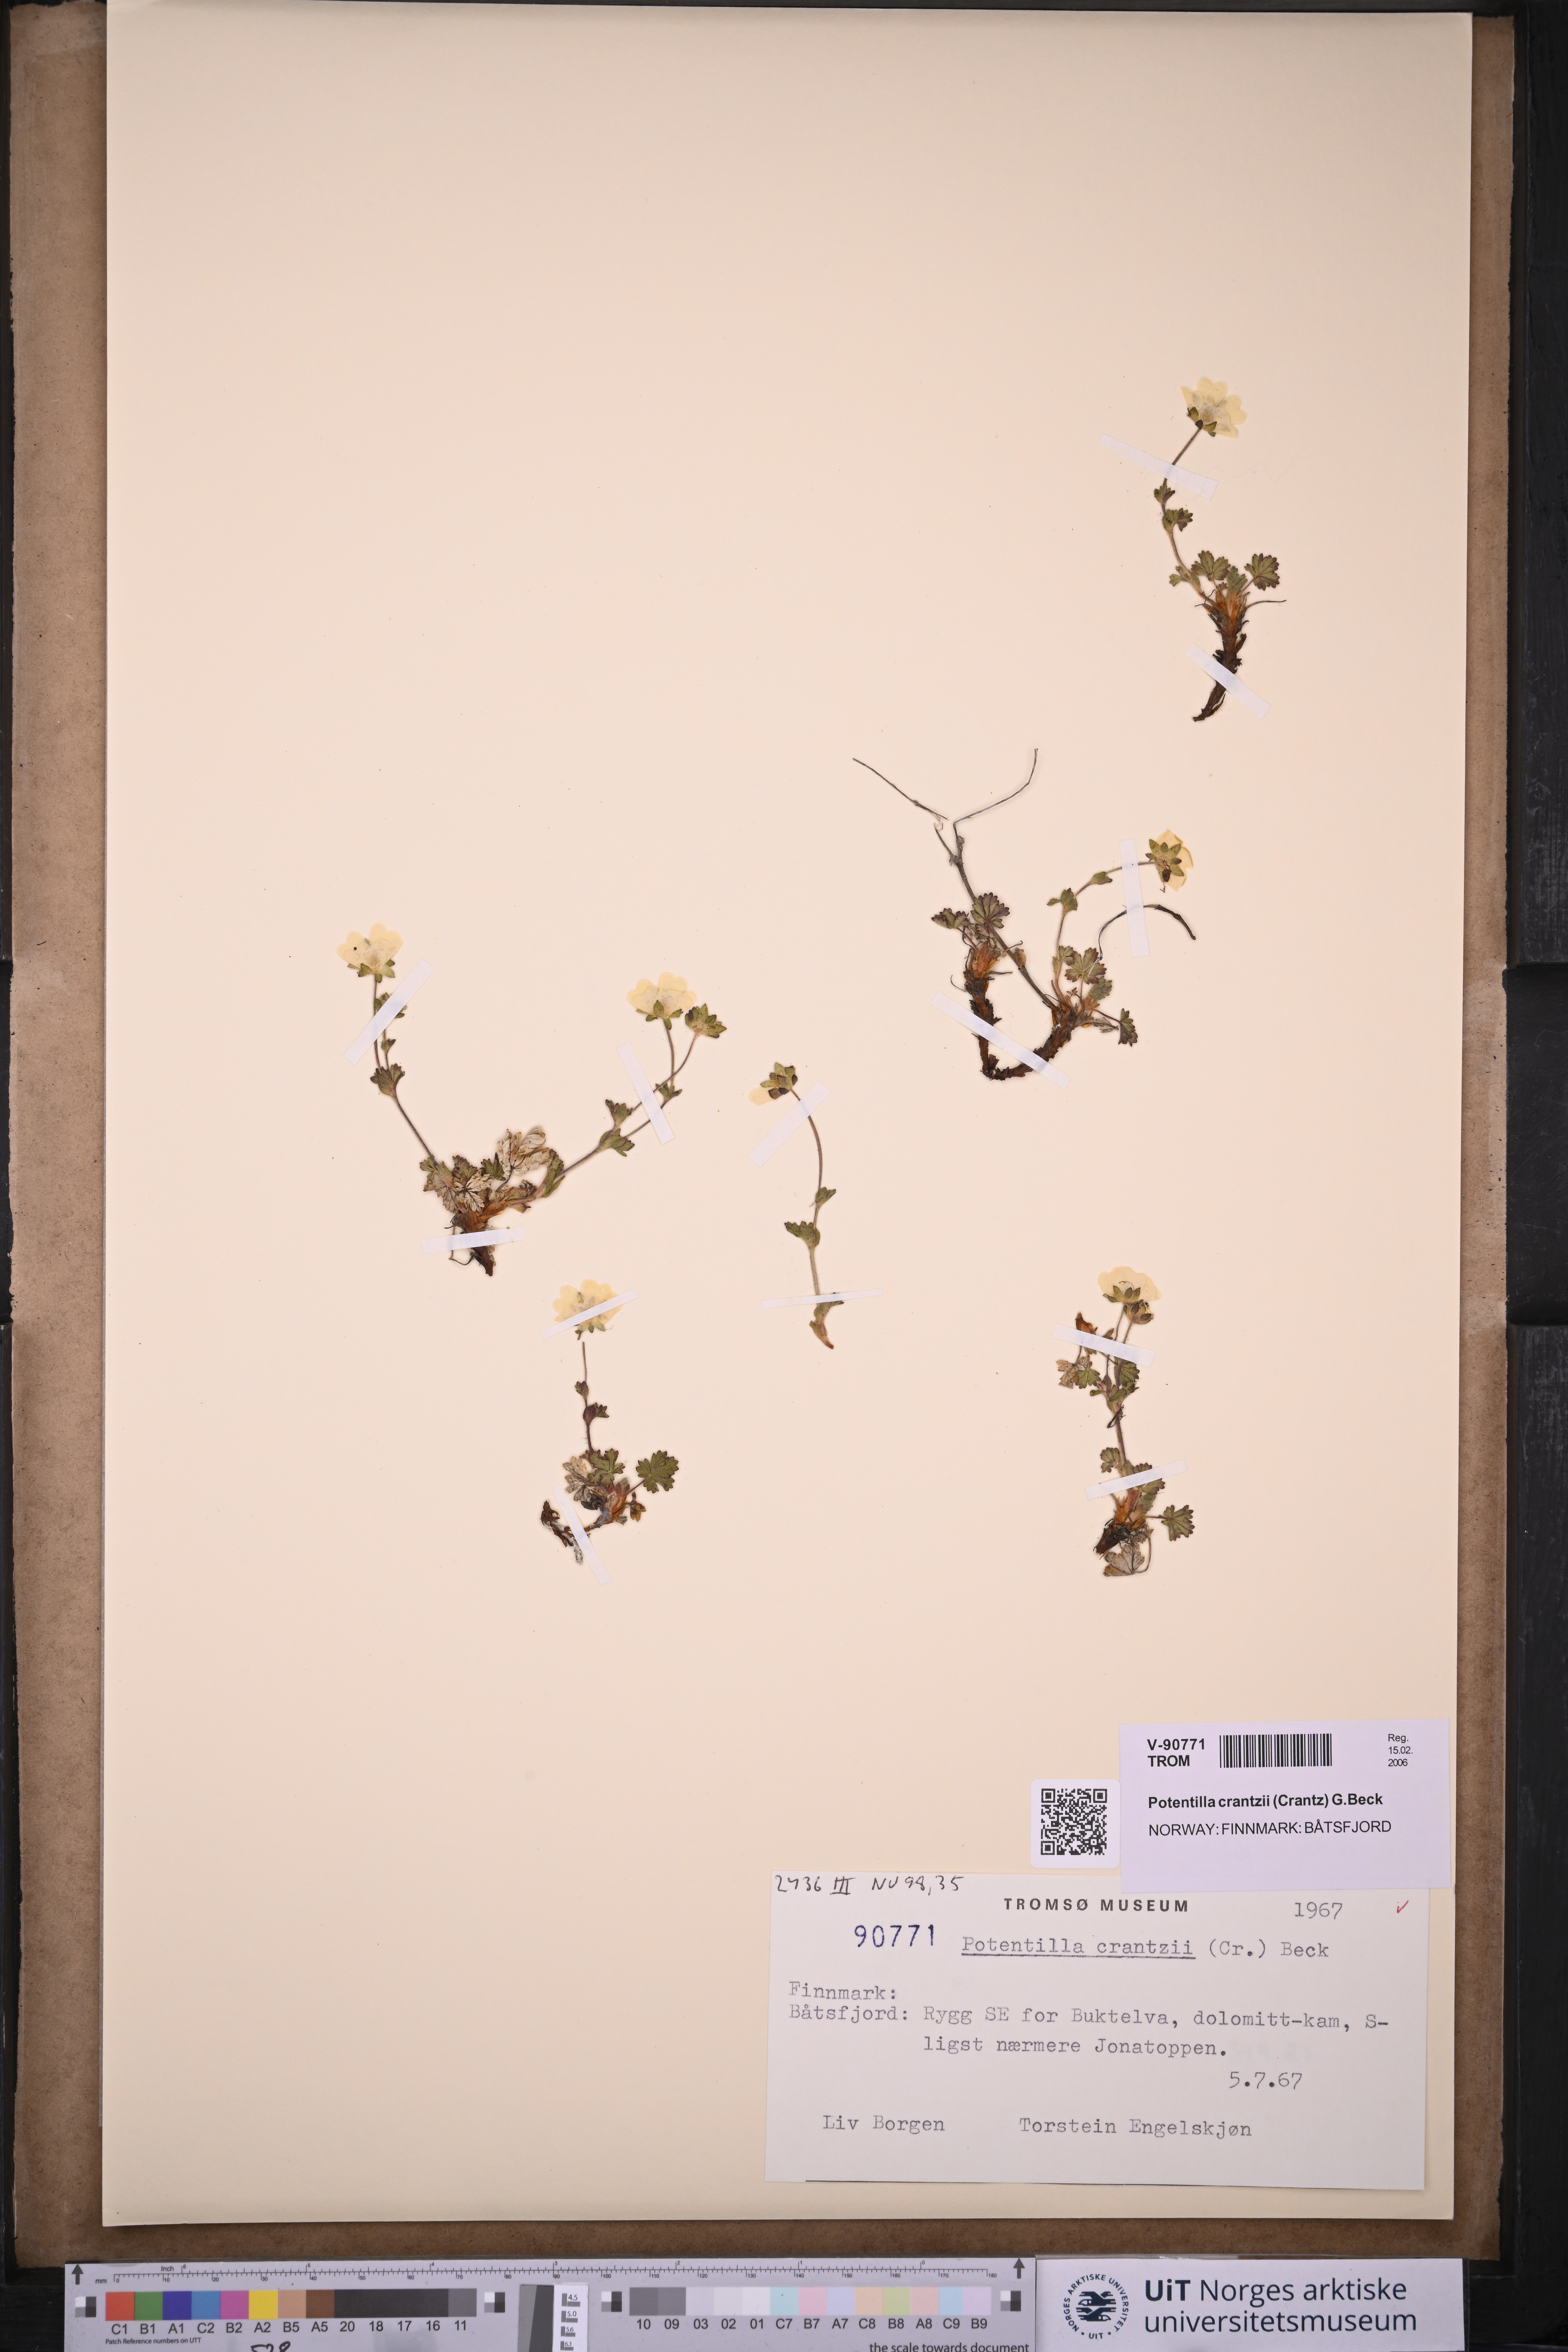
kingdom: Plantae
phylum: Tracheophyta
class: Magnoliopsida
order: Rosales
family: Rosaceae
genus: Potentilla
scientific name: Potentilla crantzii
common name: Alpine cinquefoil
